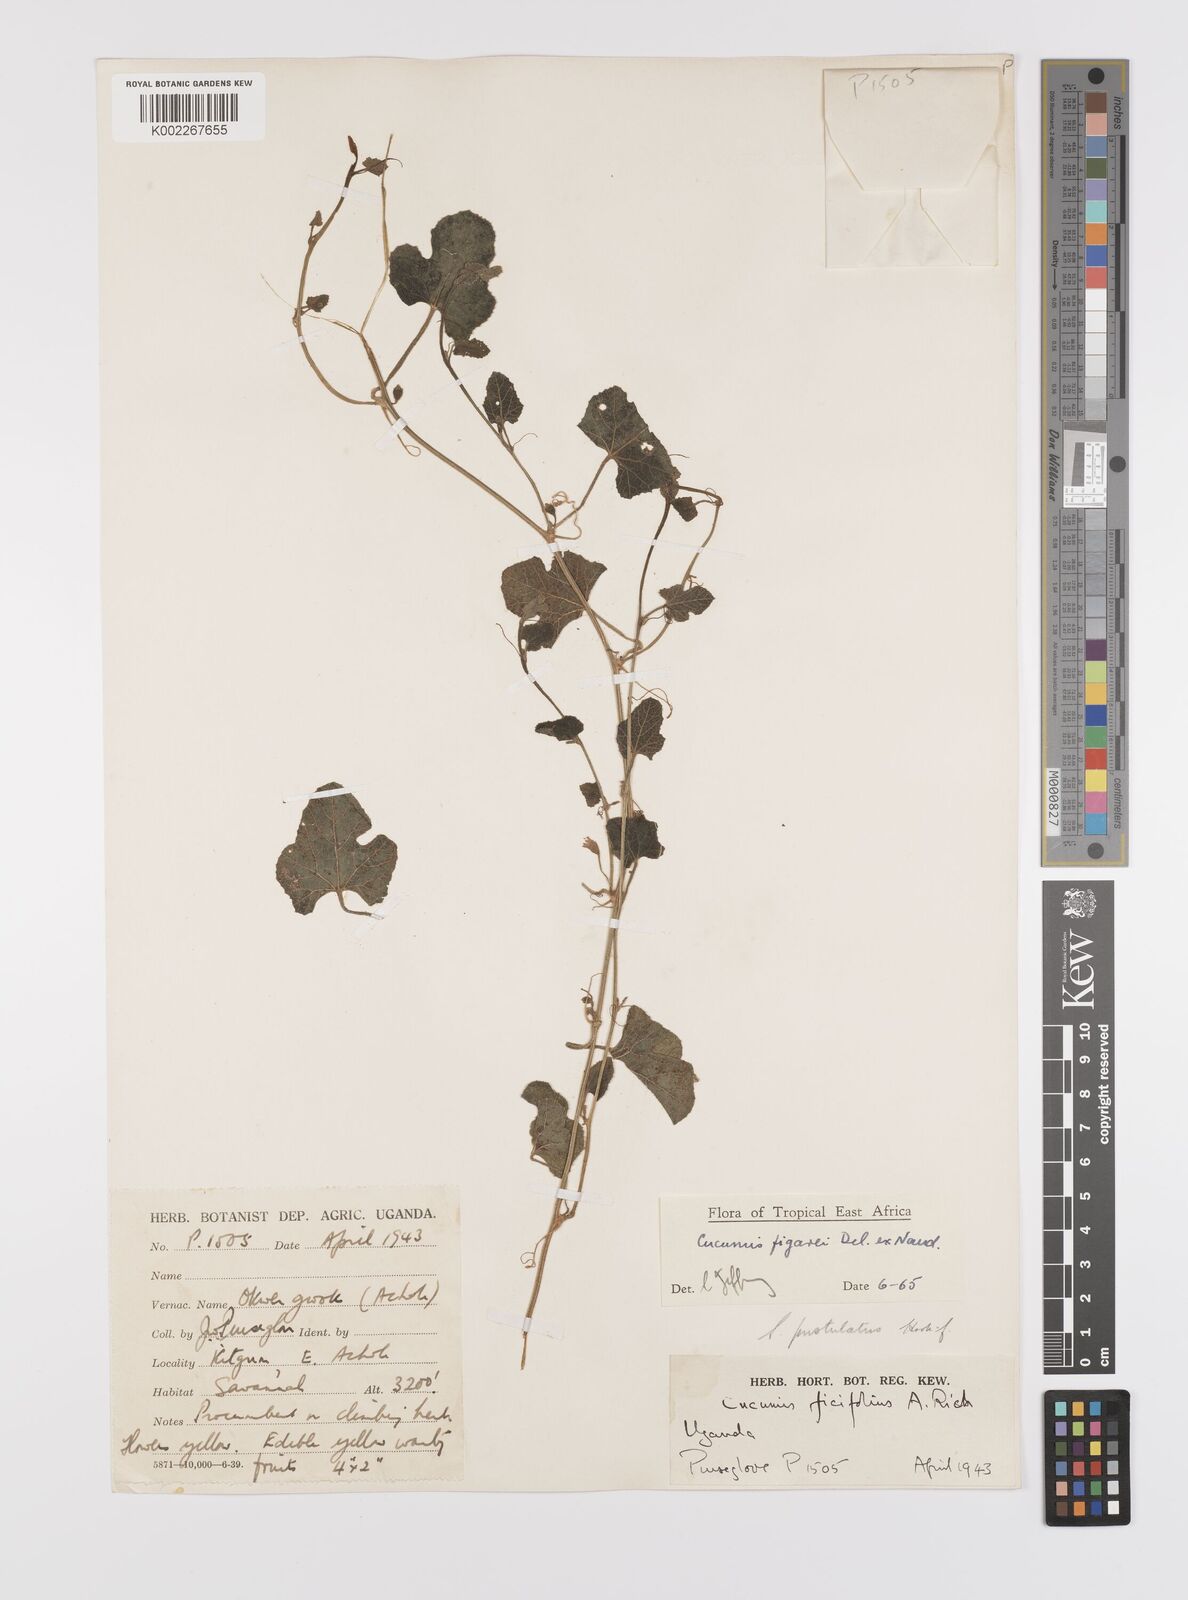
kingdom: Plantae
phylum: Tracheophyta
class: Magnoliopsida
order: Cucurbitales
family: Cucurbitaceae
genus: Cucumis
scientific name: Cucumis pustulatus
